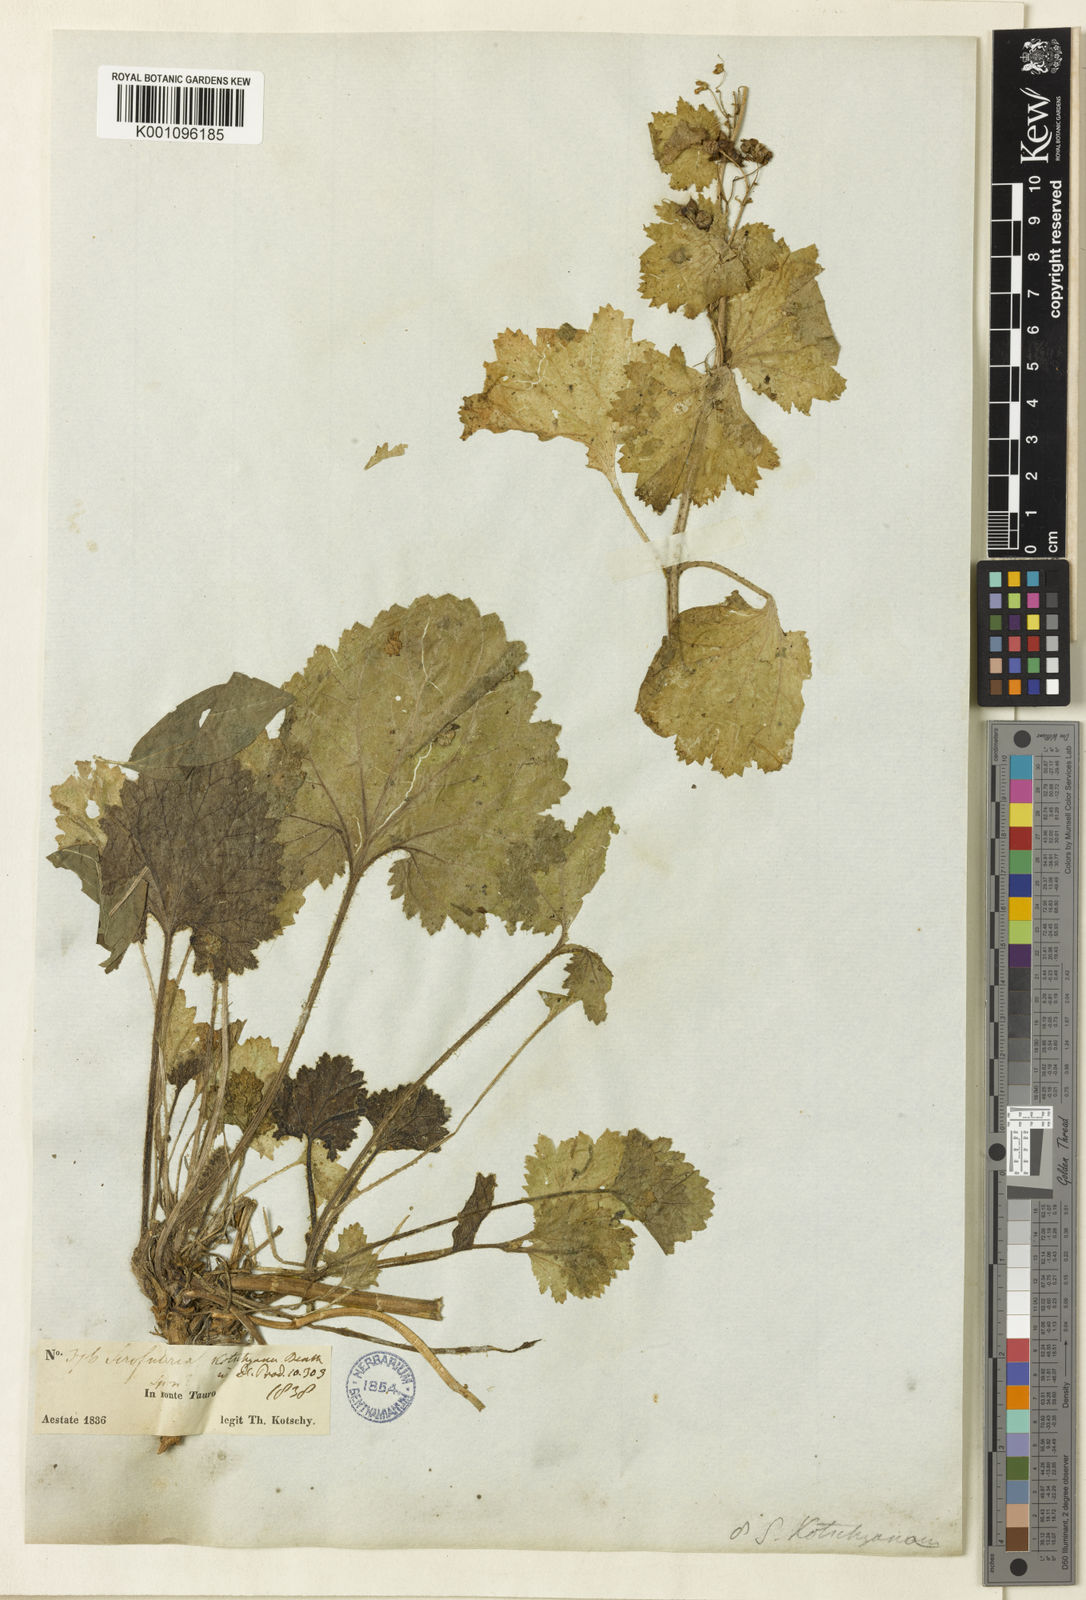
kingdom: Plantae
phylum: Tracheophyta
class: Magnoliopsida
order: Lamiales
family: Scrophulariaceae
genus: Scrophularia
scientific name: Scrophularia kotschyana
